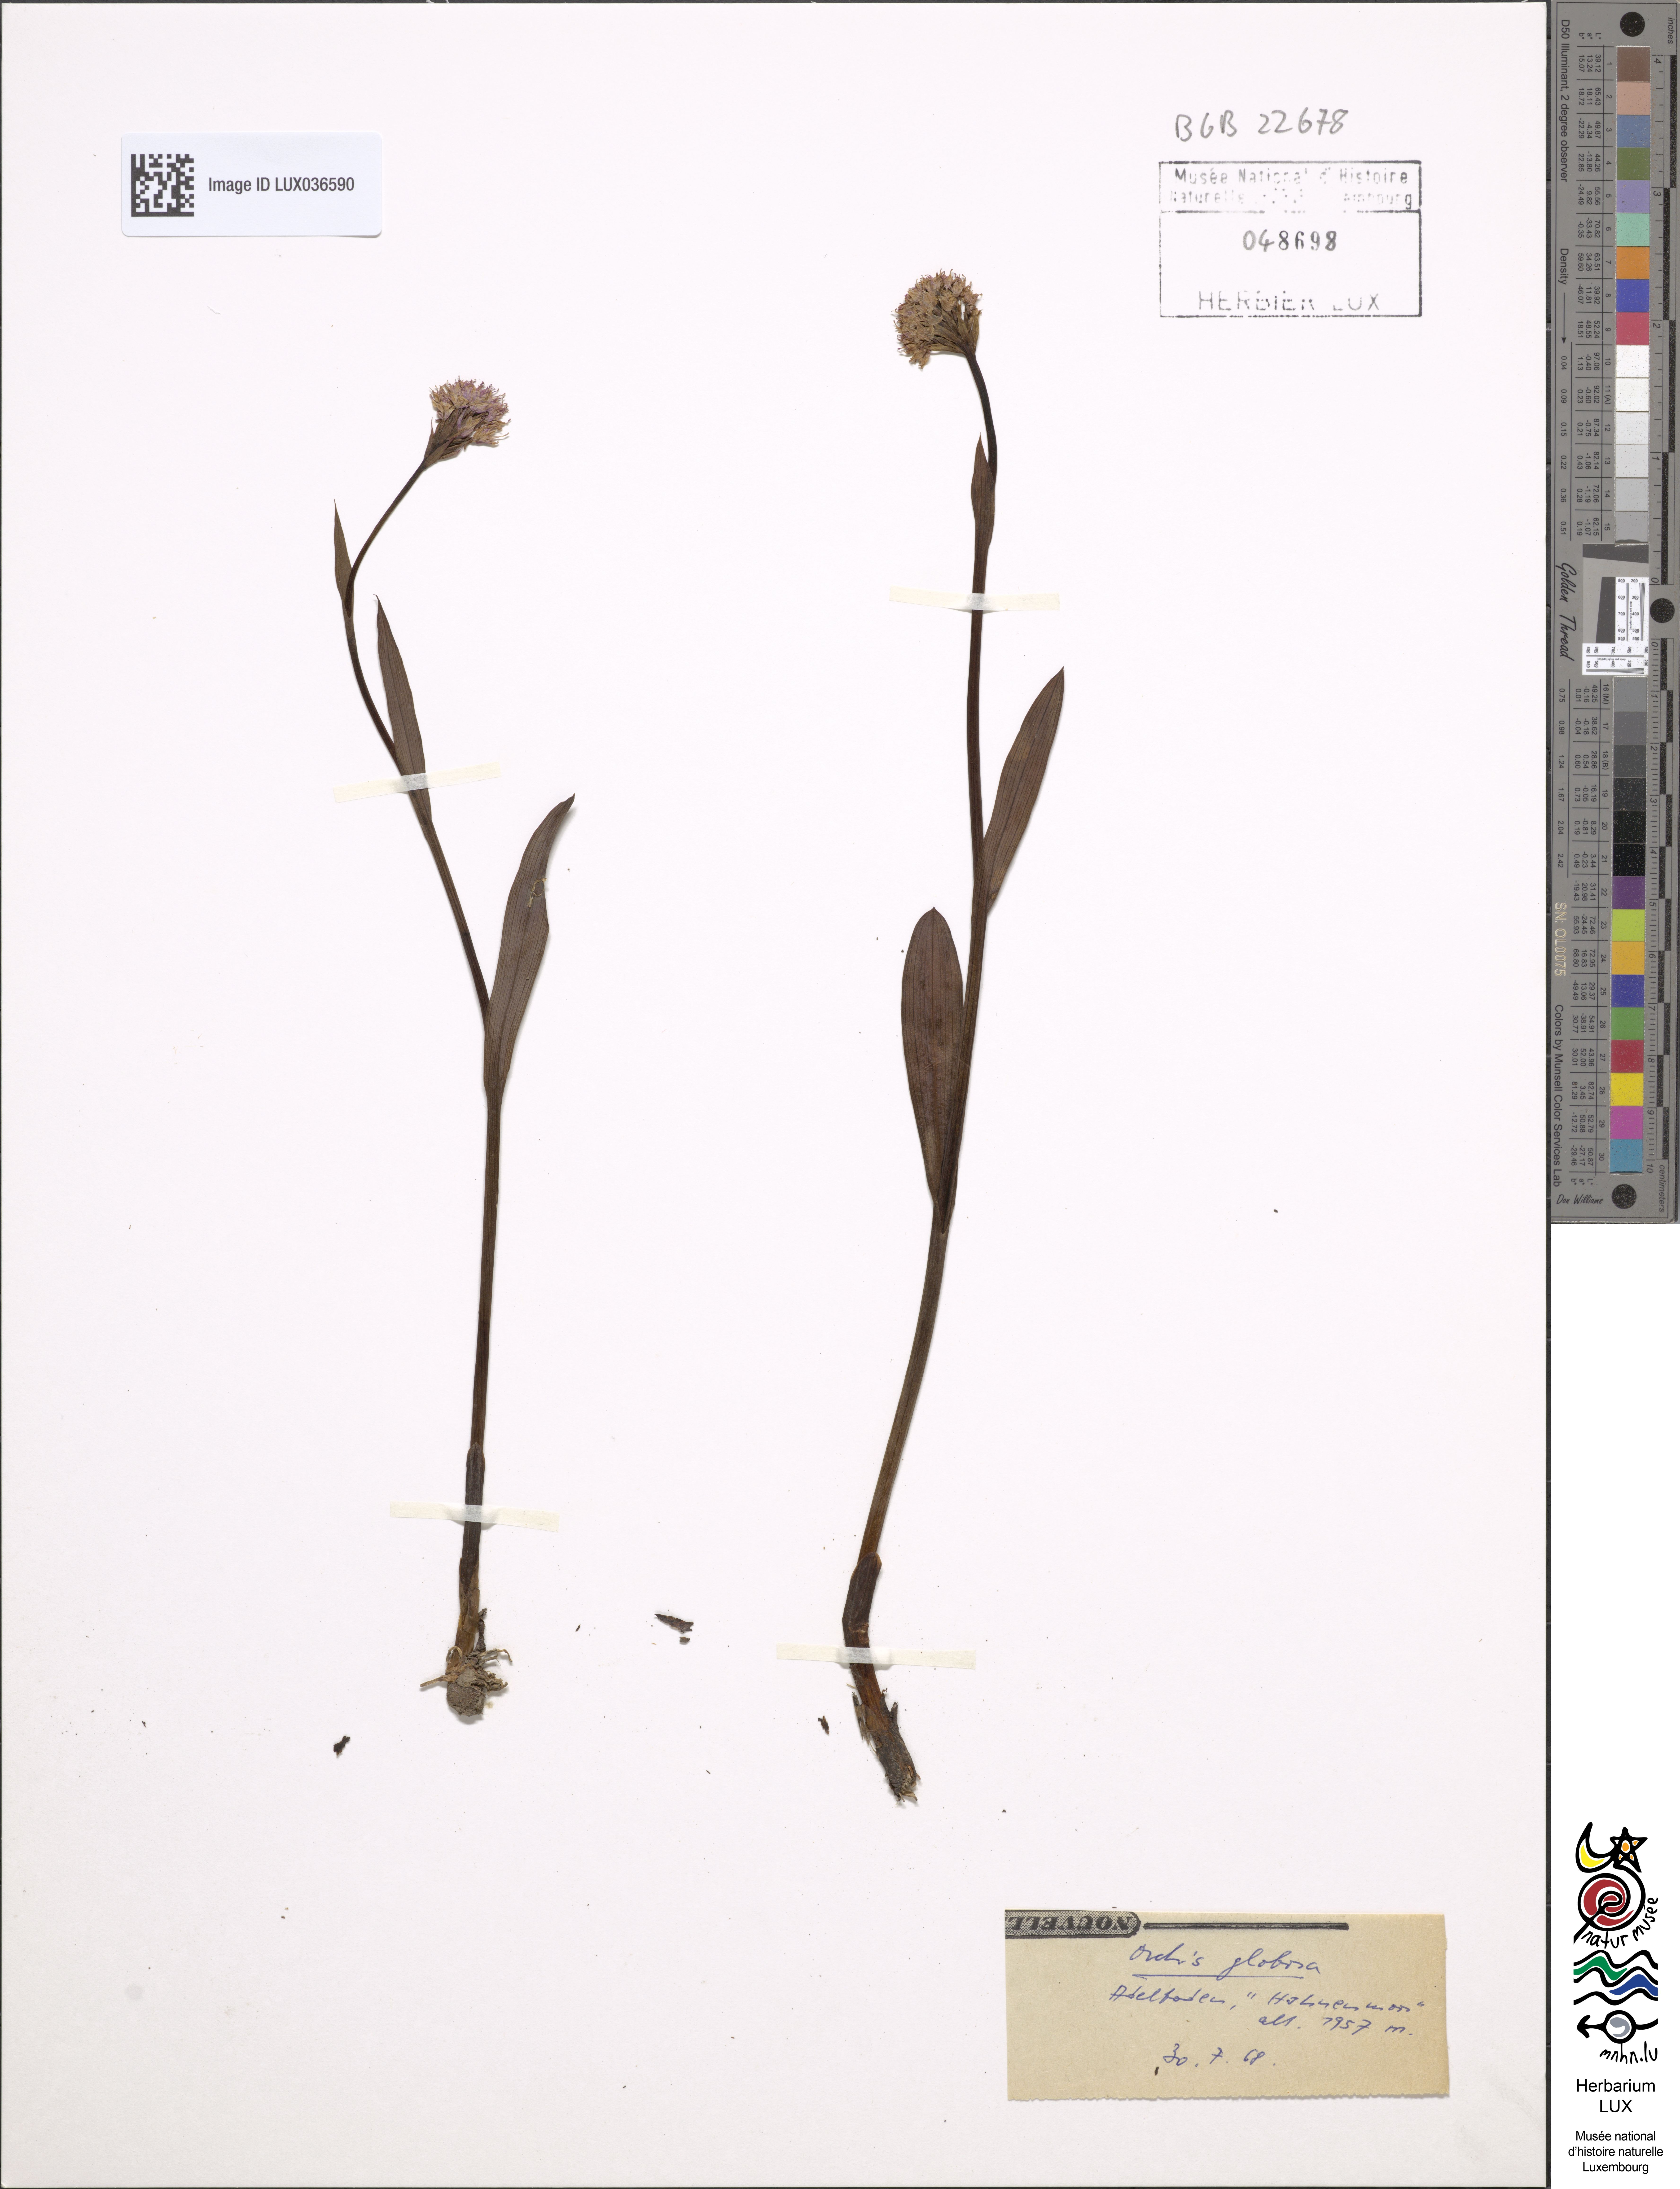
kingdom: Plantae
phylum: Tracheophyta
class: Liliopsida
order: Asparagales
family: Orchidaceae
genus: Traunsteinera
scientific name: Traunsteinera globosa
